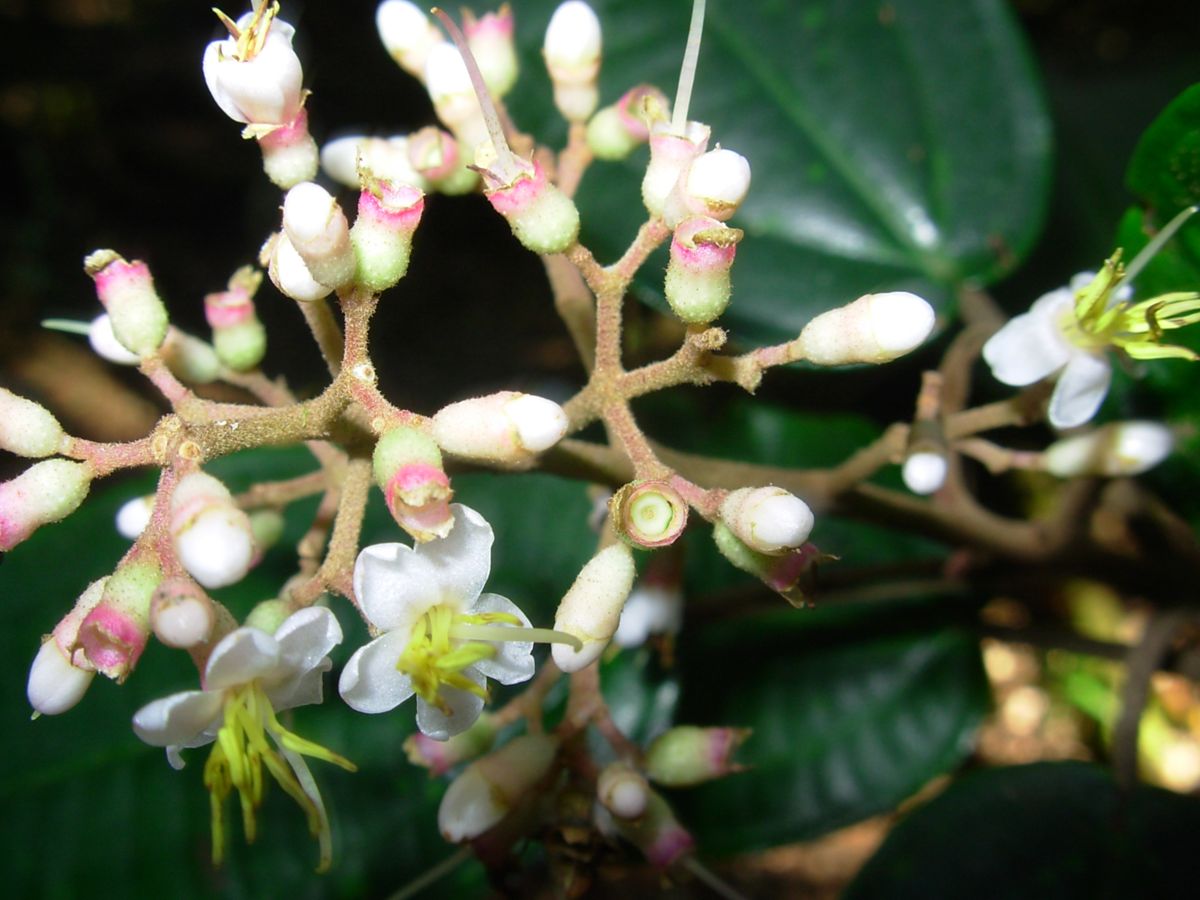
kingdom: Plantae
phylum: Tracheophyta
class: Magnoliopsida
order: Myrtales
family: Melastomataceae
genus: Miconia
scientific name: Miconia
